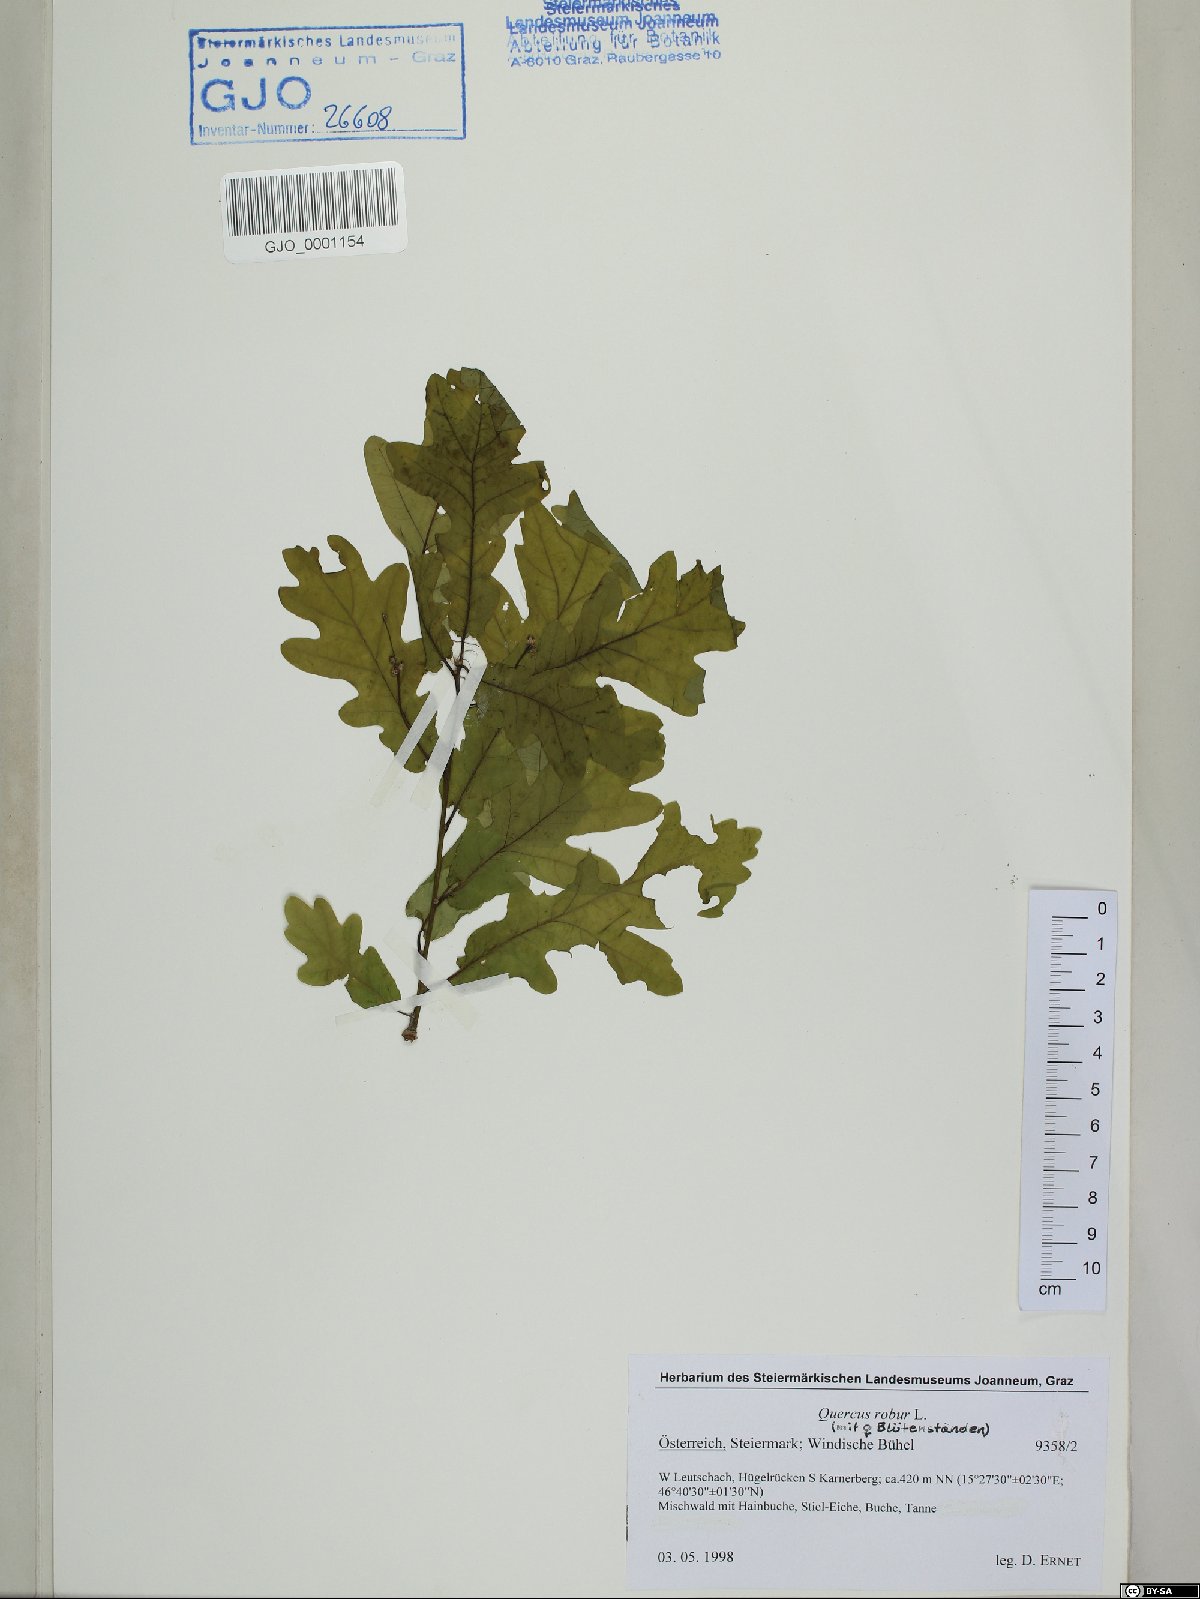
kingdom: Plantae
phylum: Tracheophyta
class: Magnoliopsida
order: Fagales
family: Fagaceae
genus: Quercus
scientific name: Quercus robur
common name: Pedunculate oak
